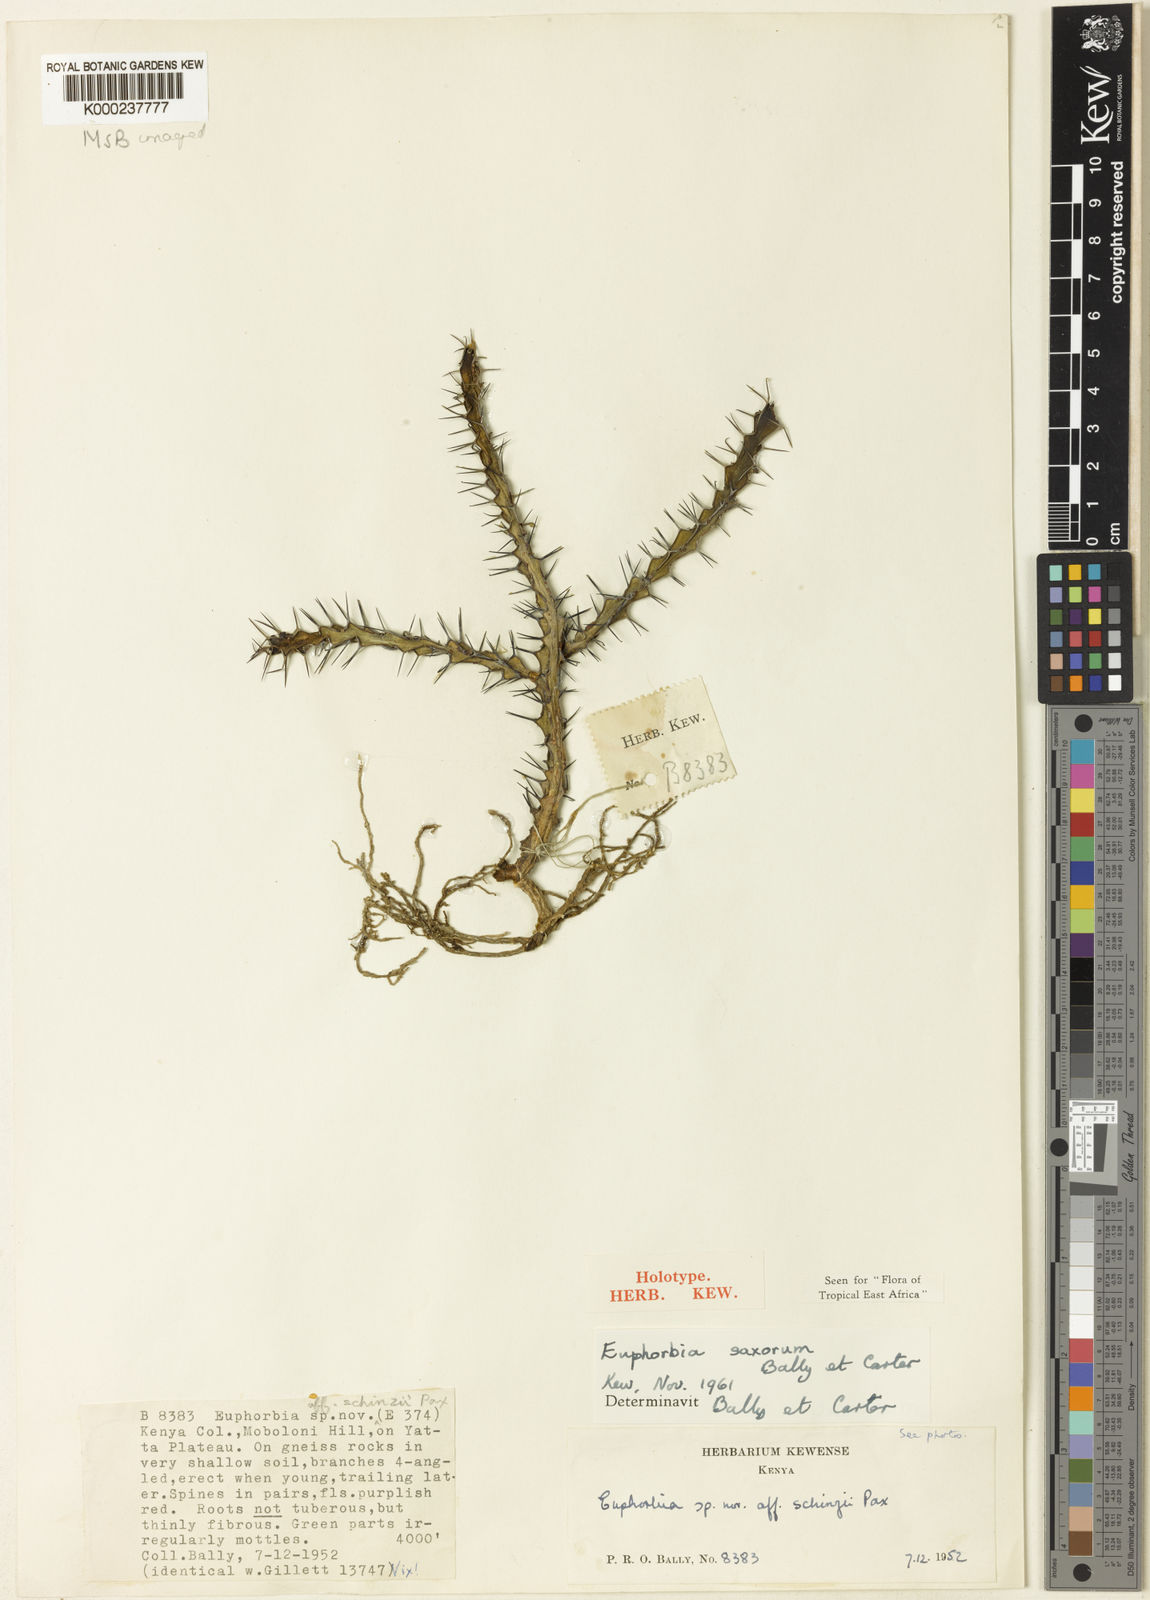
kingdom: Plantae
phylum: Tracheophyta
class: Magnoliopsida
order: Malpighiales
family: Euphorbiaceae
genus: Euphorbia
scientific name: Euphorbia saxorum
